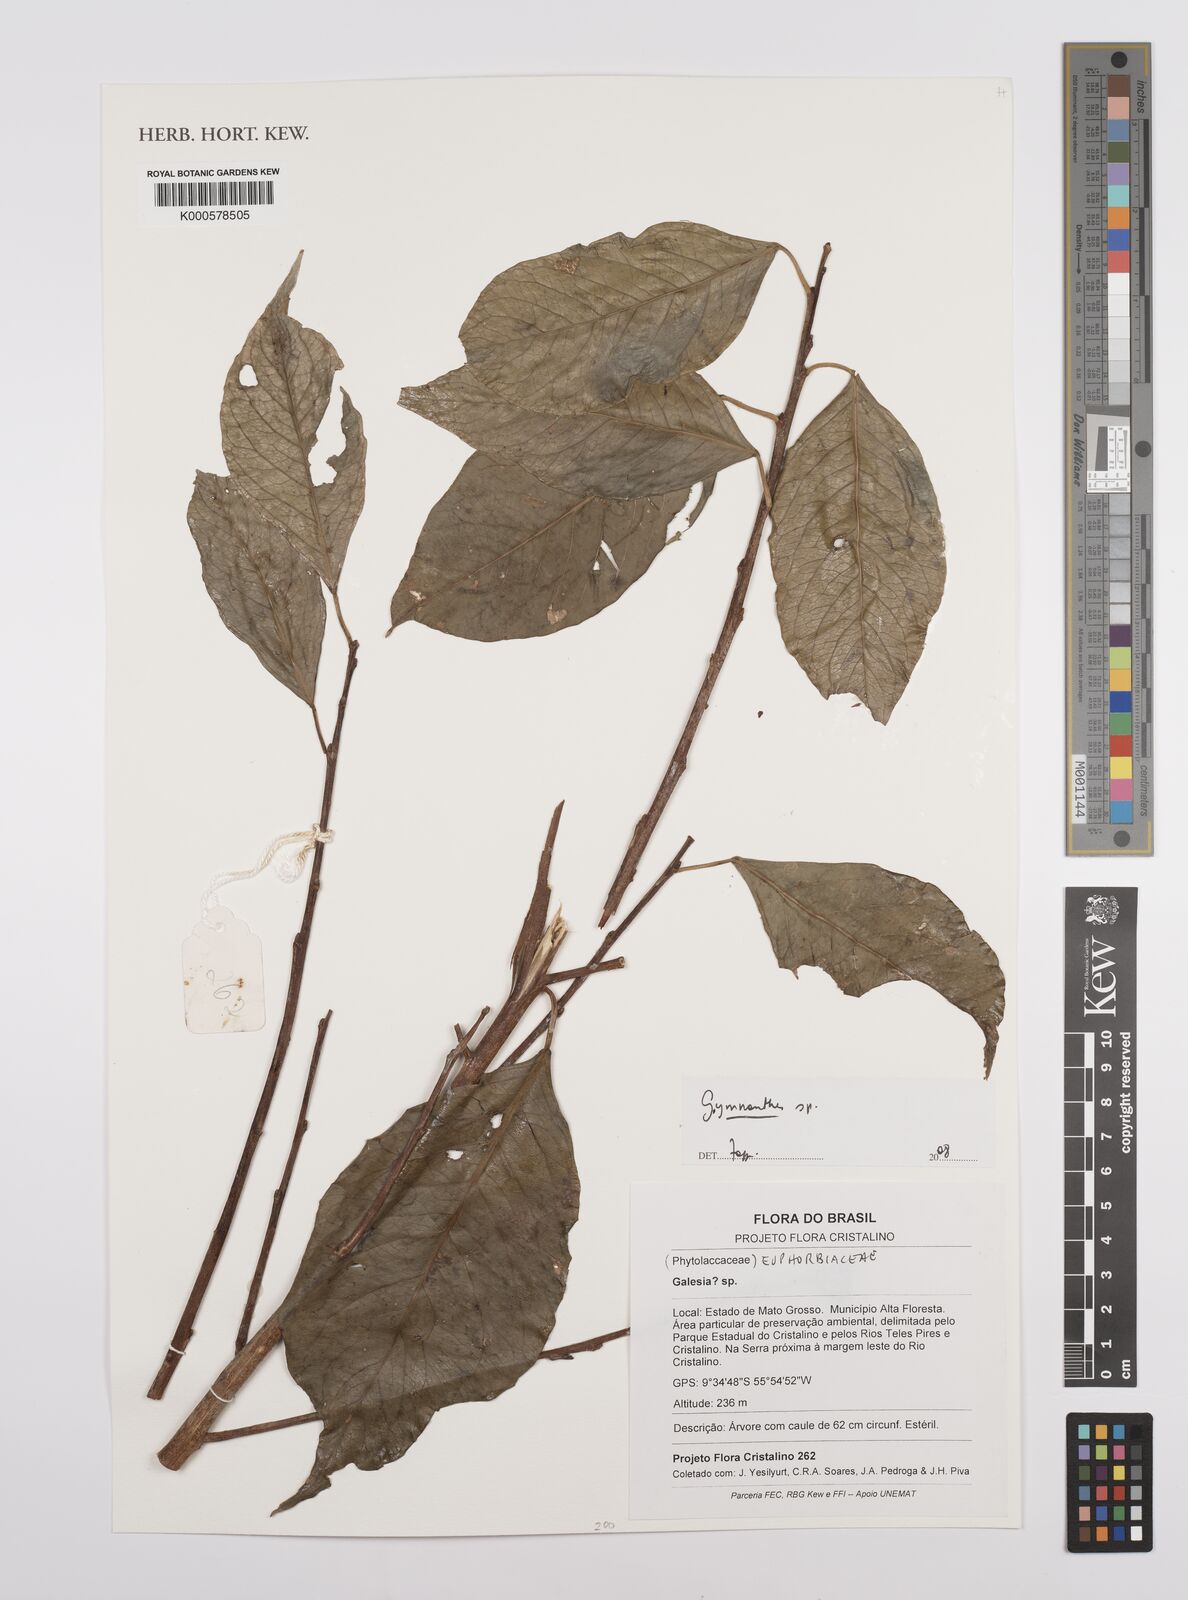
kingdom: Plantae
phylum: Tracheophyta
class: Magnoliopsida
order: Malpighiales
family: Euphorbiaceae
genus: Gymnanthes
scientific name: Gymnanthes
